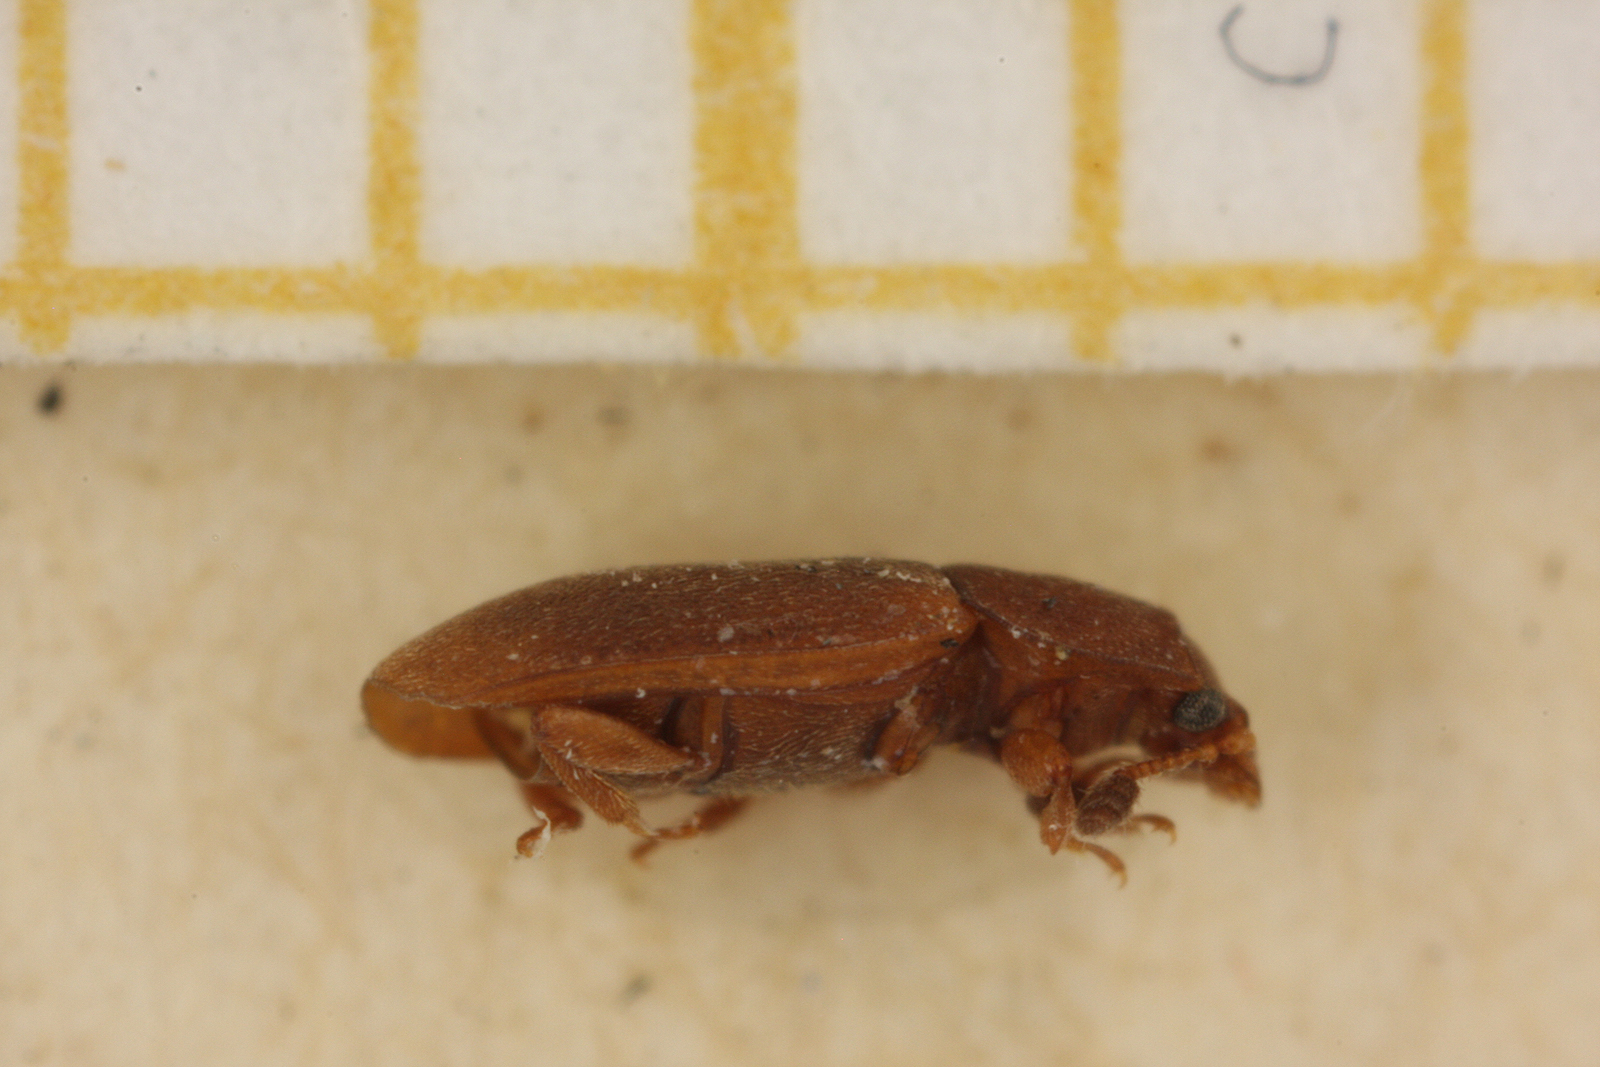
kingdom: Animalia
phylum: Arthropoda
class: Insecta
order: Coleoptera
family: Nitidulidae
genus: Epuraea
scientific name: Epuraea opalizans
